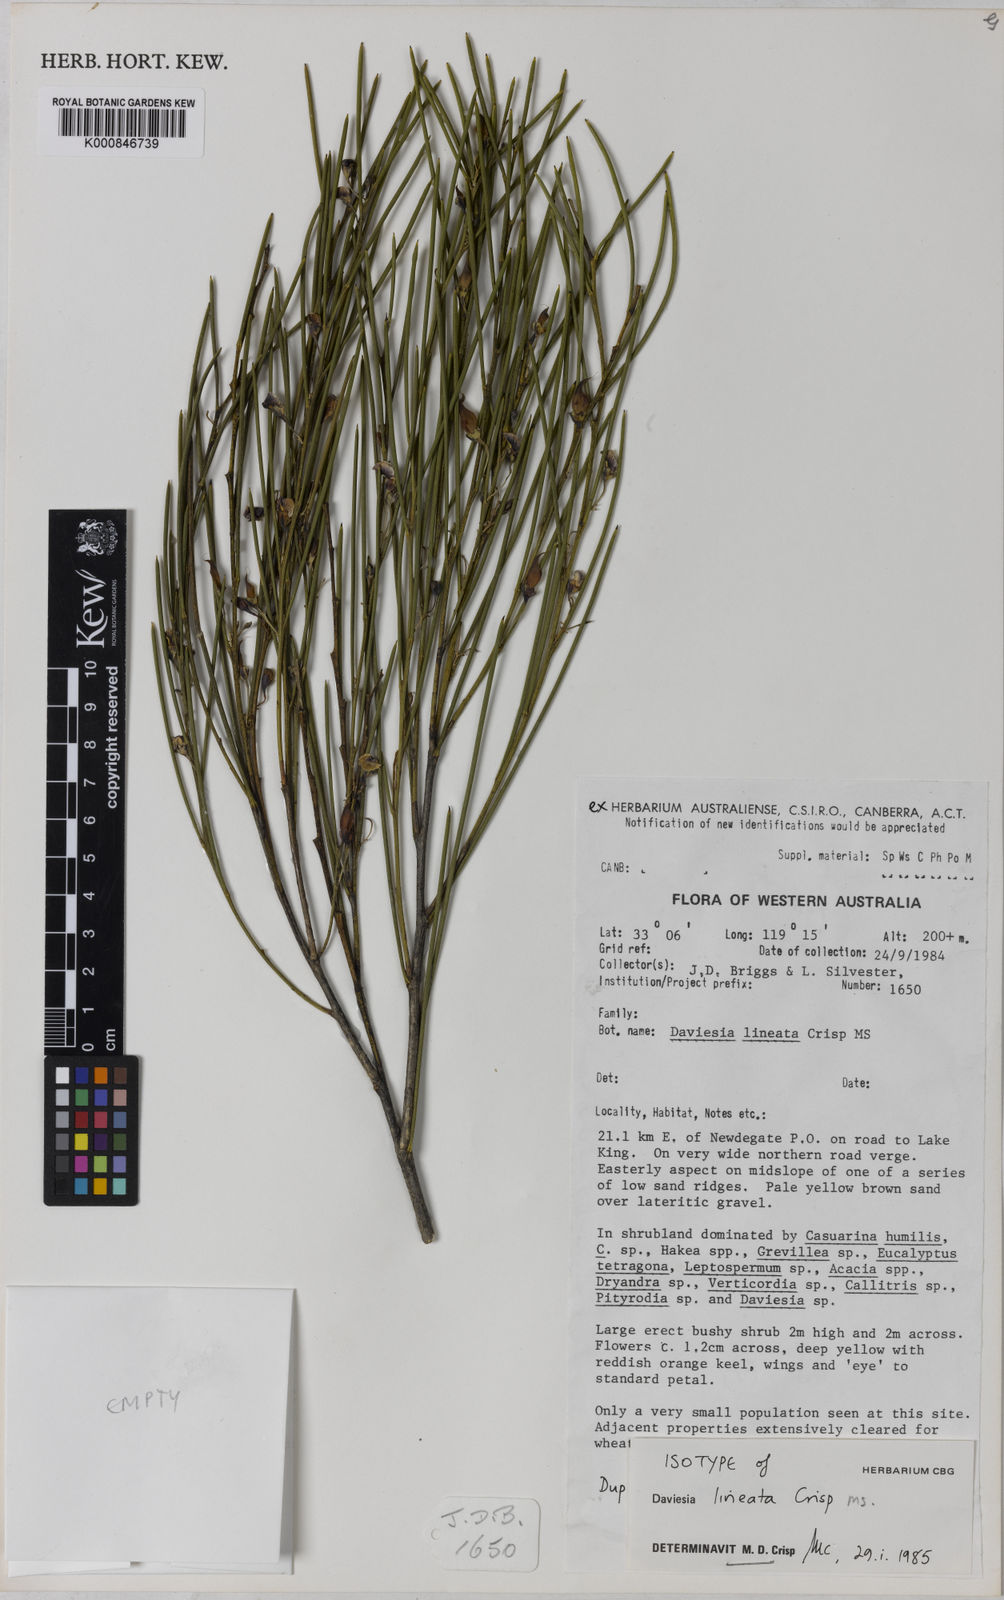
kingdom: Plantae
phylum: Tracheophyta
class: Magnoliopsida
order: Fabales
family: Fabaceae
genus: Daviesia
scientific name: Daviesia lineata
